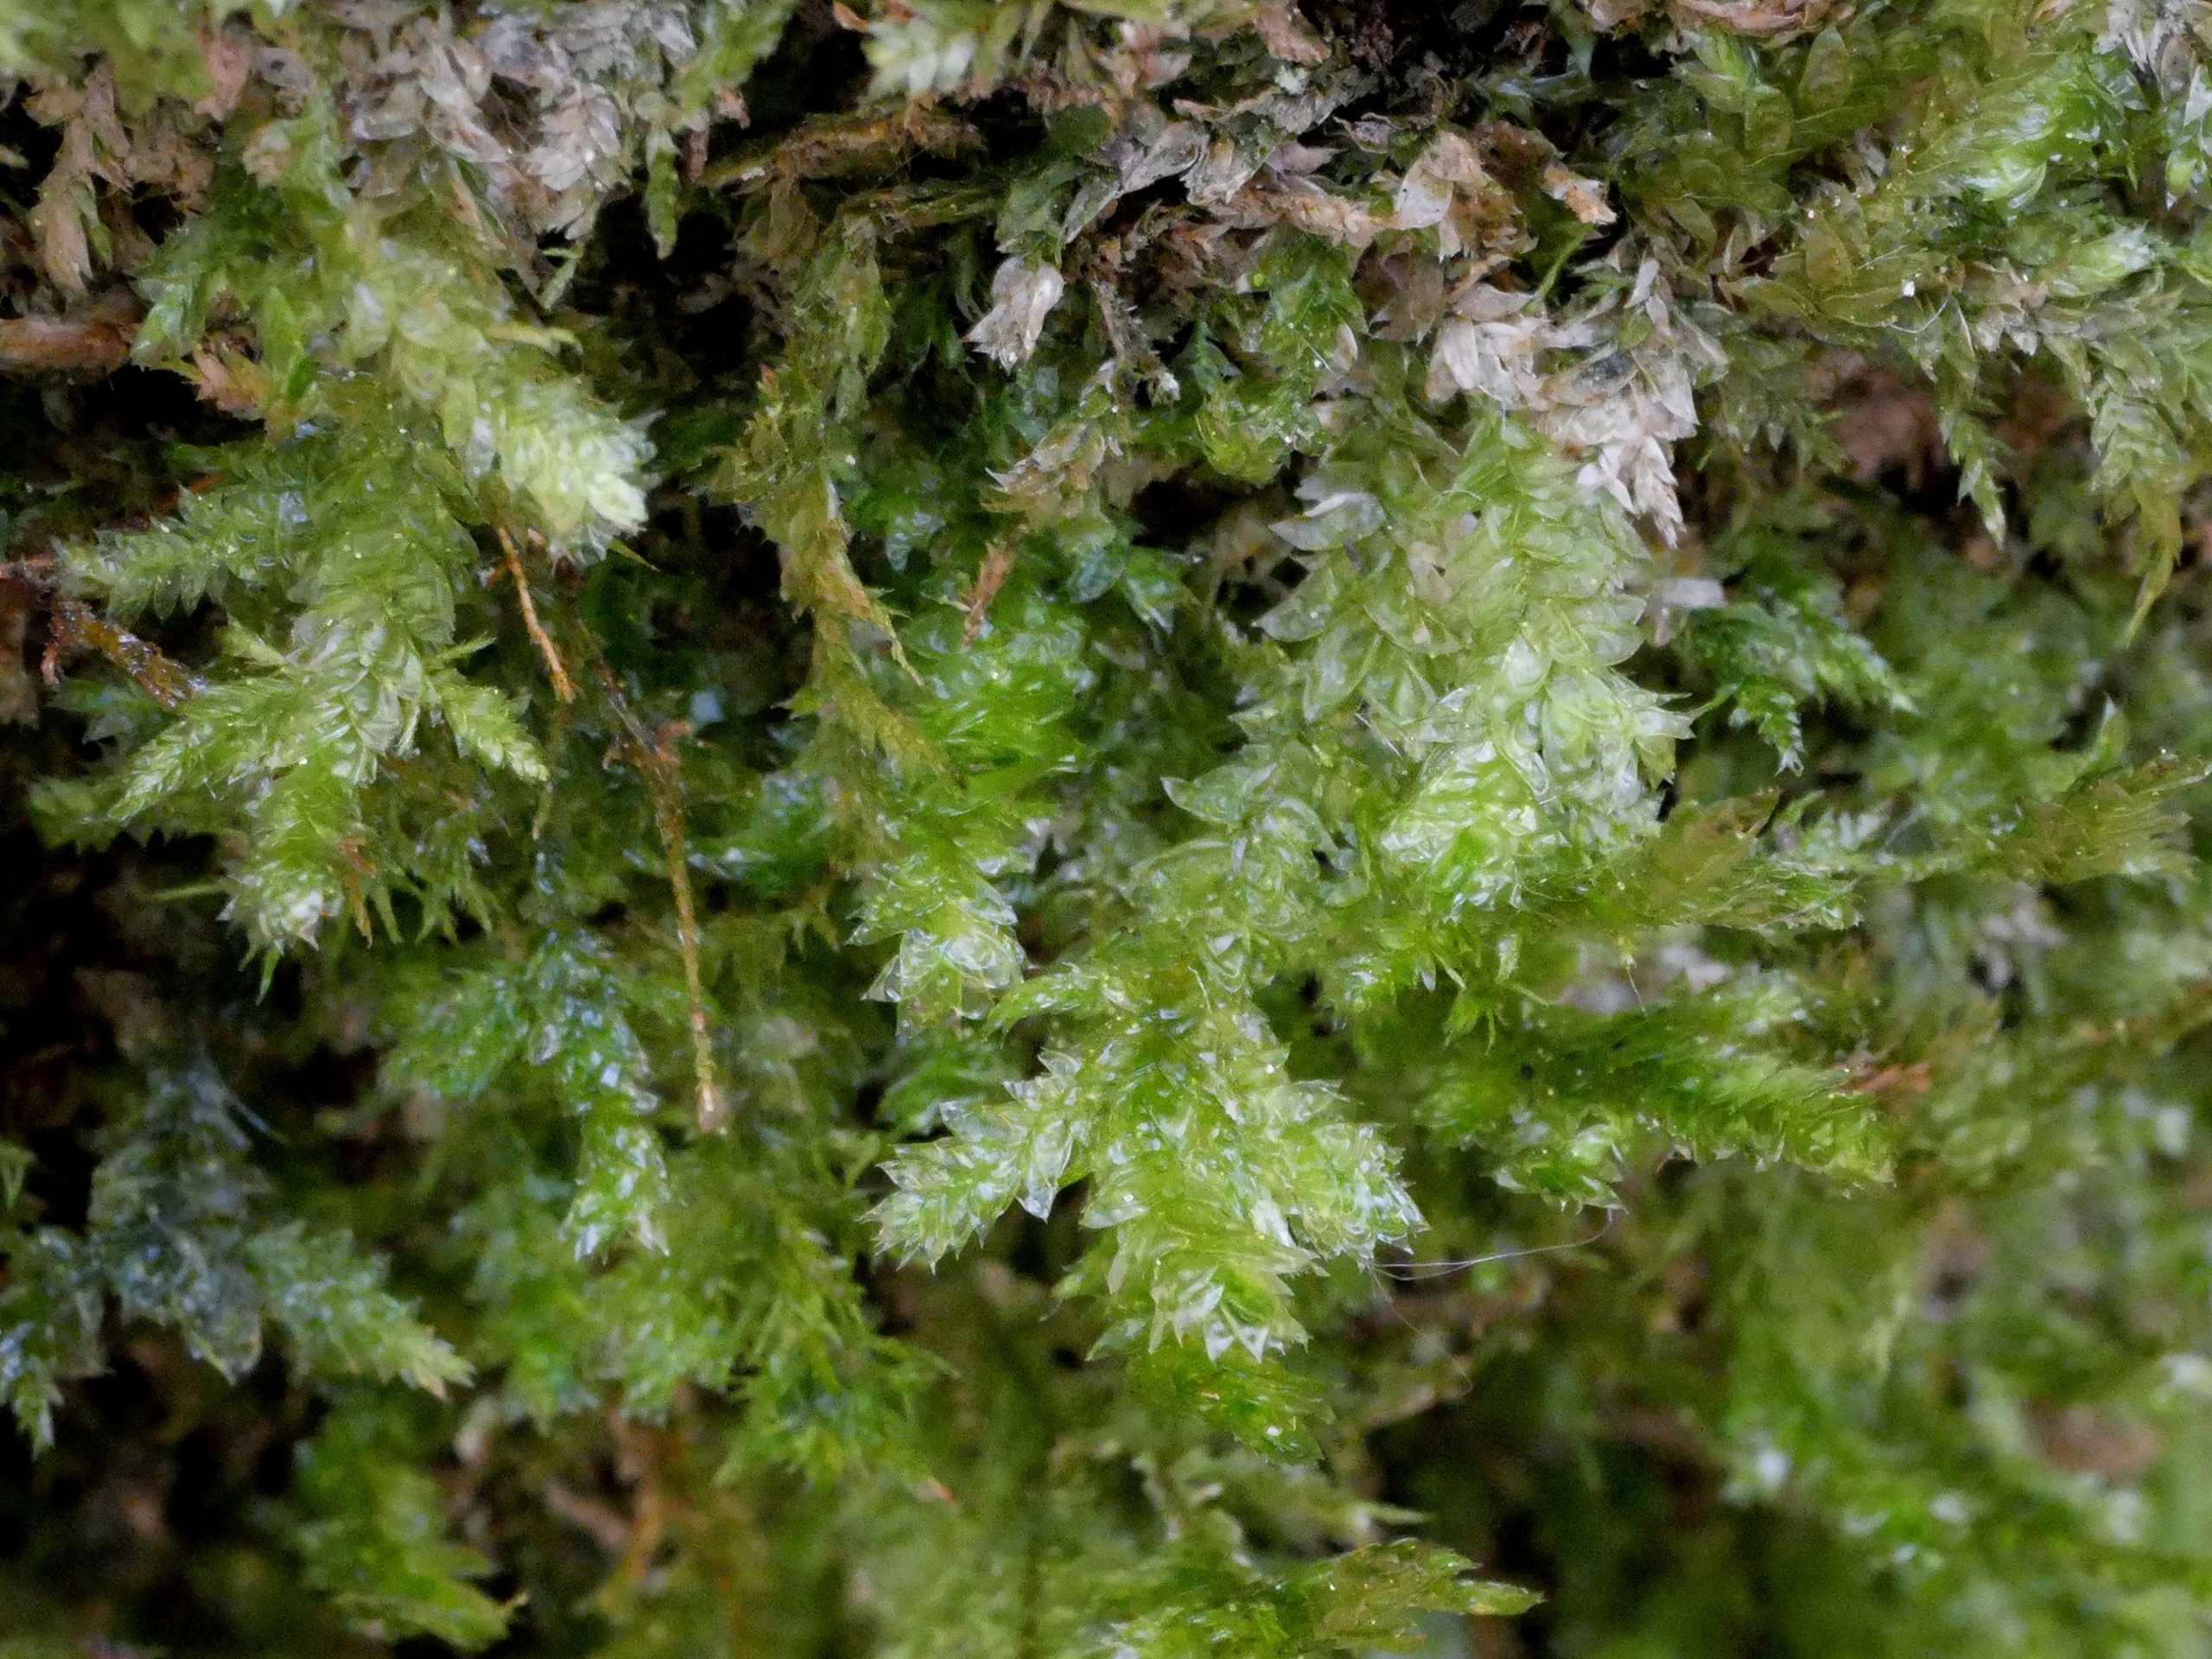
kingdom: Plantae
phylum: Bryophyta
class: Bryopsida
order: Hypnales
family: Neckeraceae
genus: Neckera
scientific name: Neckera pumila
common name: Lav fladmos
